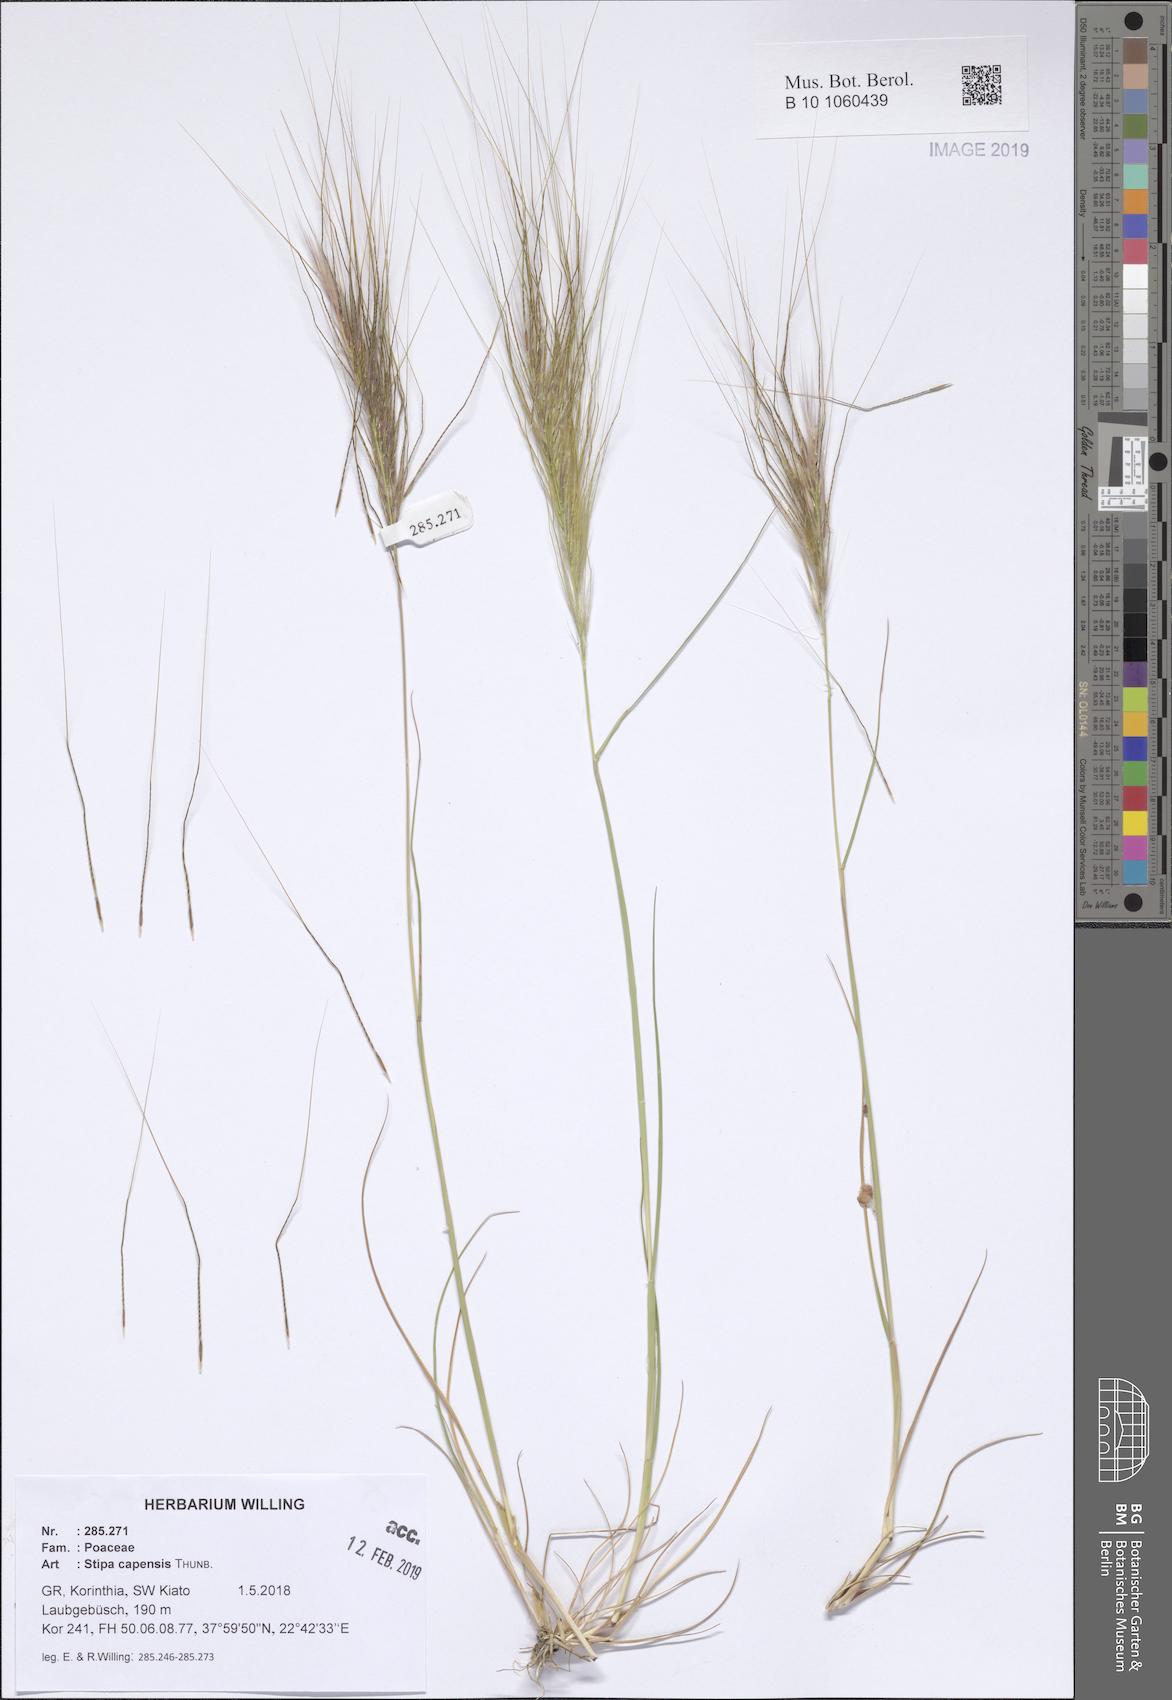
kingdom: Plantae
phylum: Tracheophyta
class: Liliopsida
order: Poales
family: Poaceae
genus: Stipellula
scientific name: Stipellula capensis
